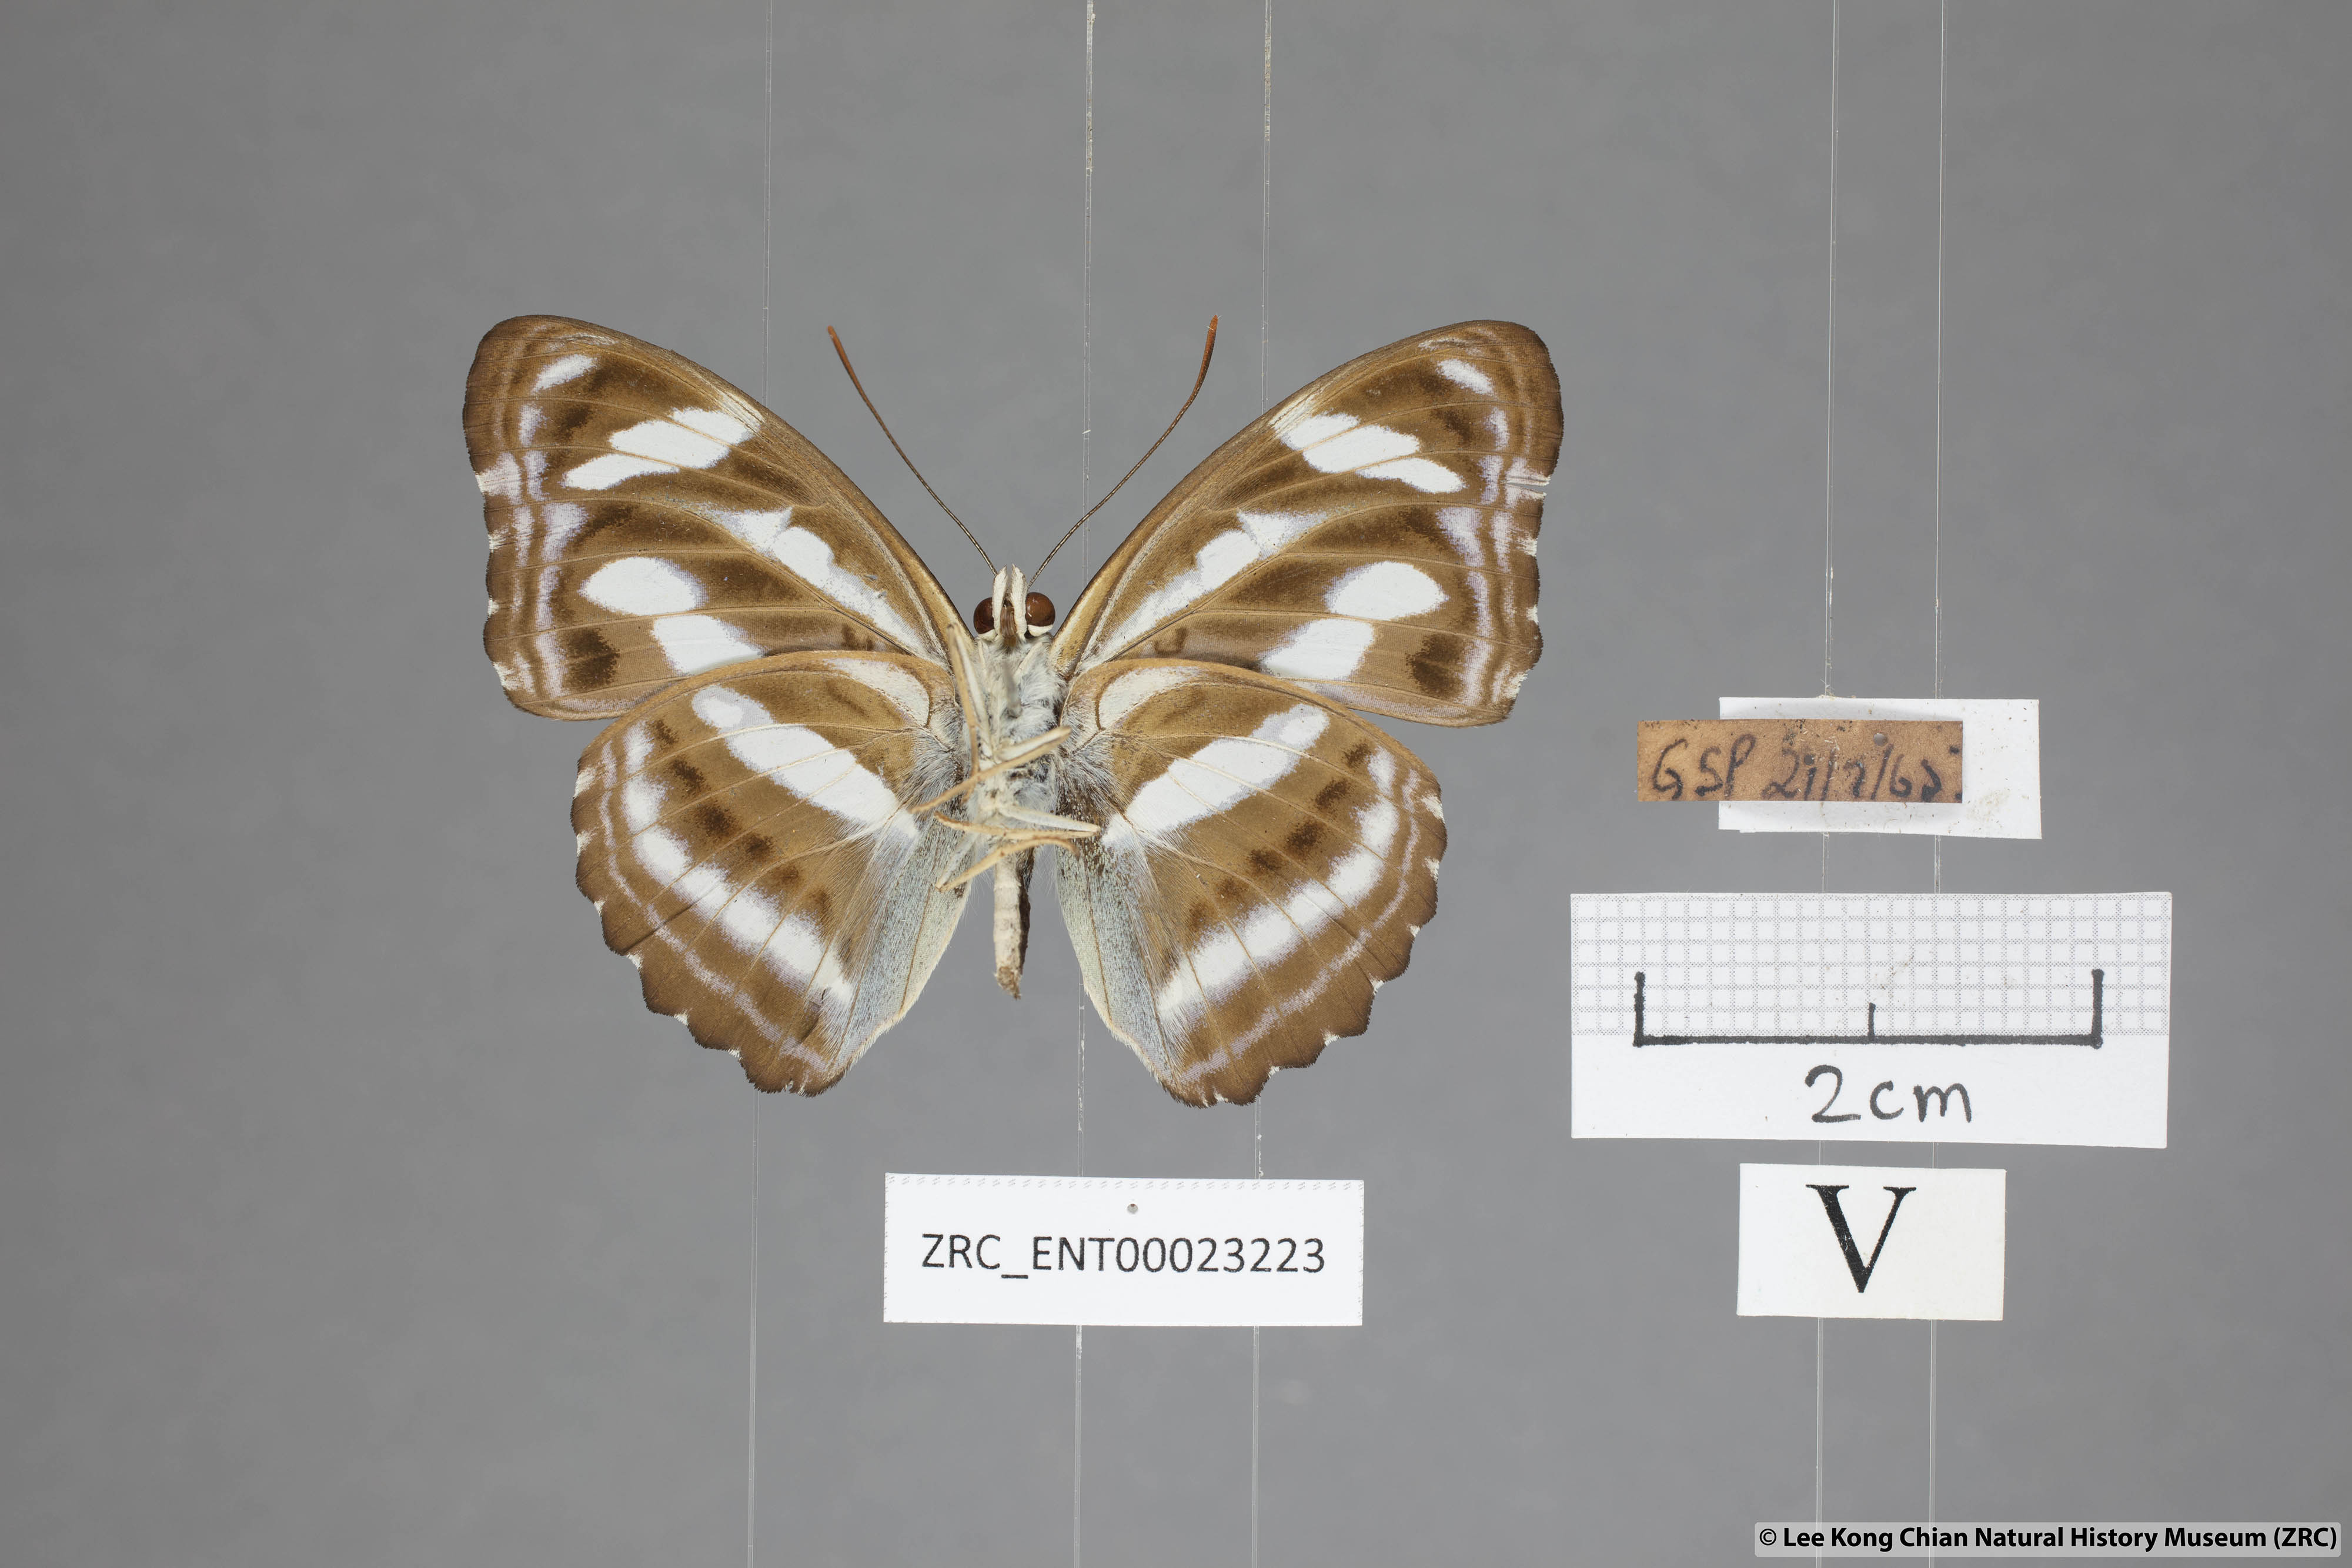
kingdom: Animalia
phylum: Arthropoda
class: Insecta
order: Lepidoptera
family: Nymphalidae
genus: Parathyma
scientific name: Parathyma nefte
